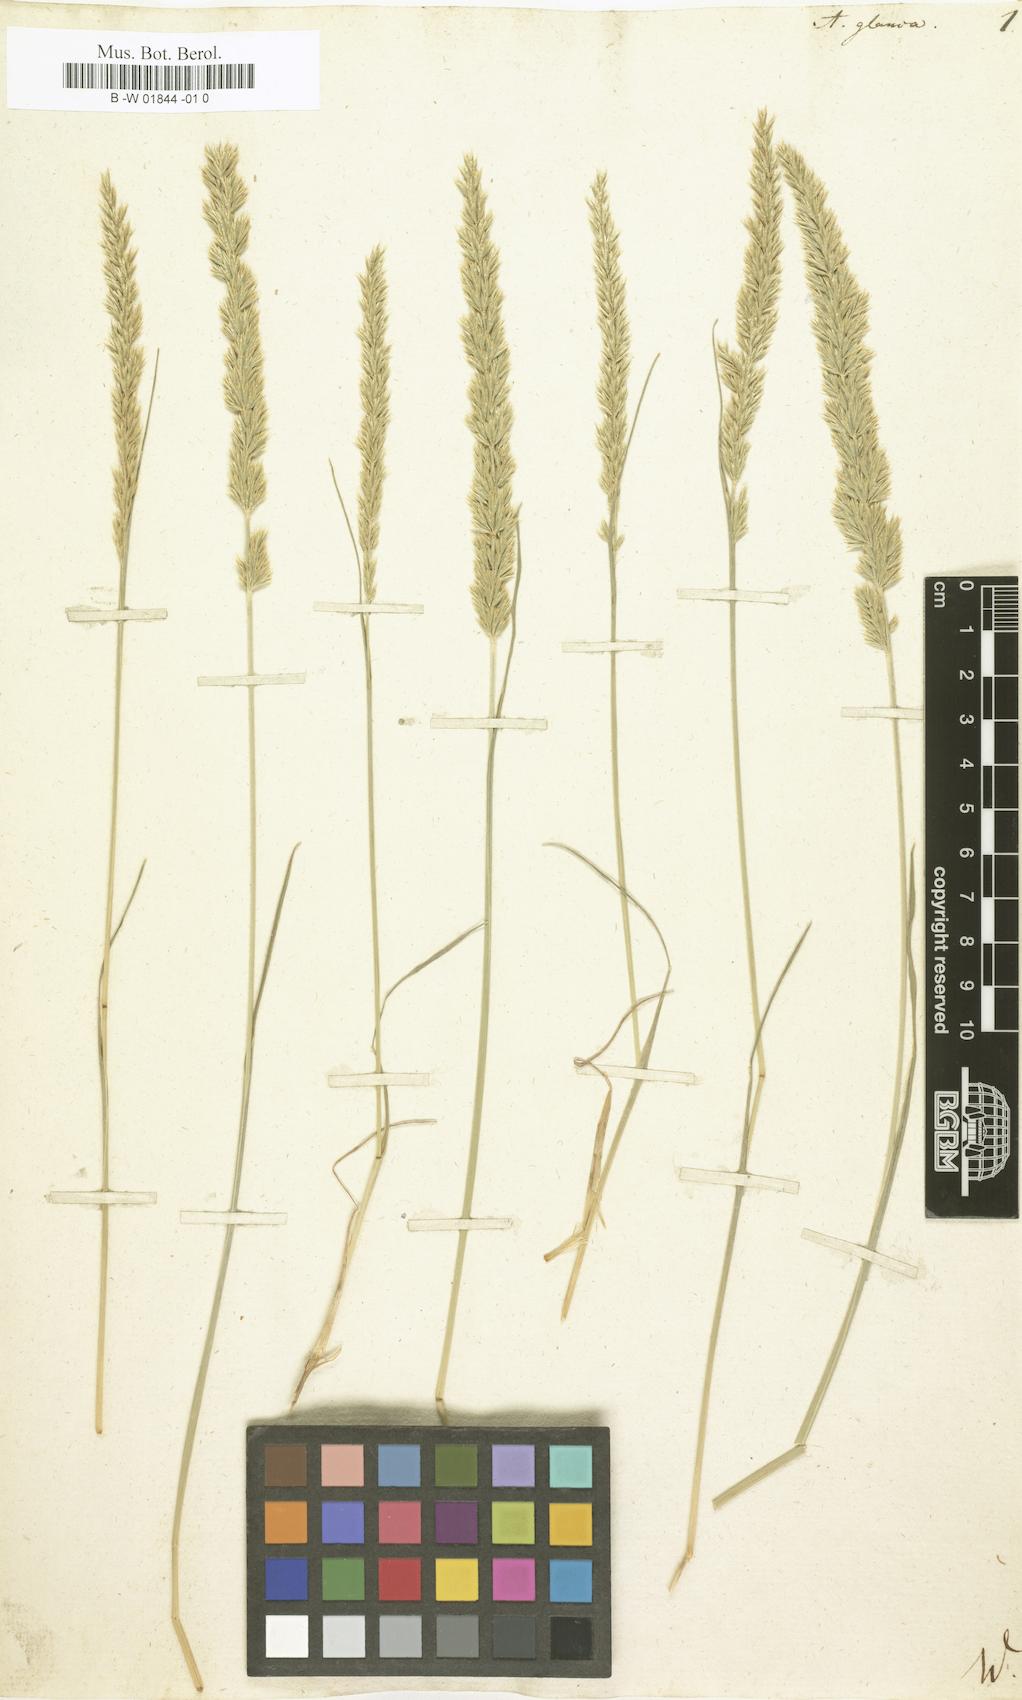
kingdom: Plantae
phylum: Tracheophyta
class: Liliopsida
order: Poales
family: Poaceae
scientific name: Poaceae
